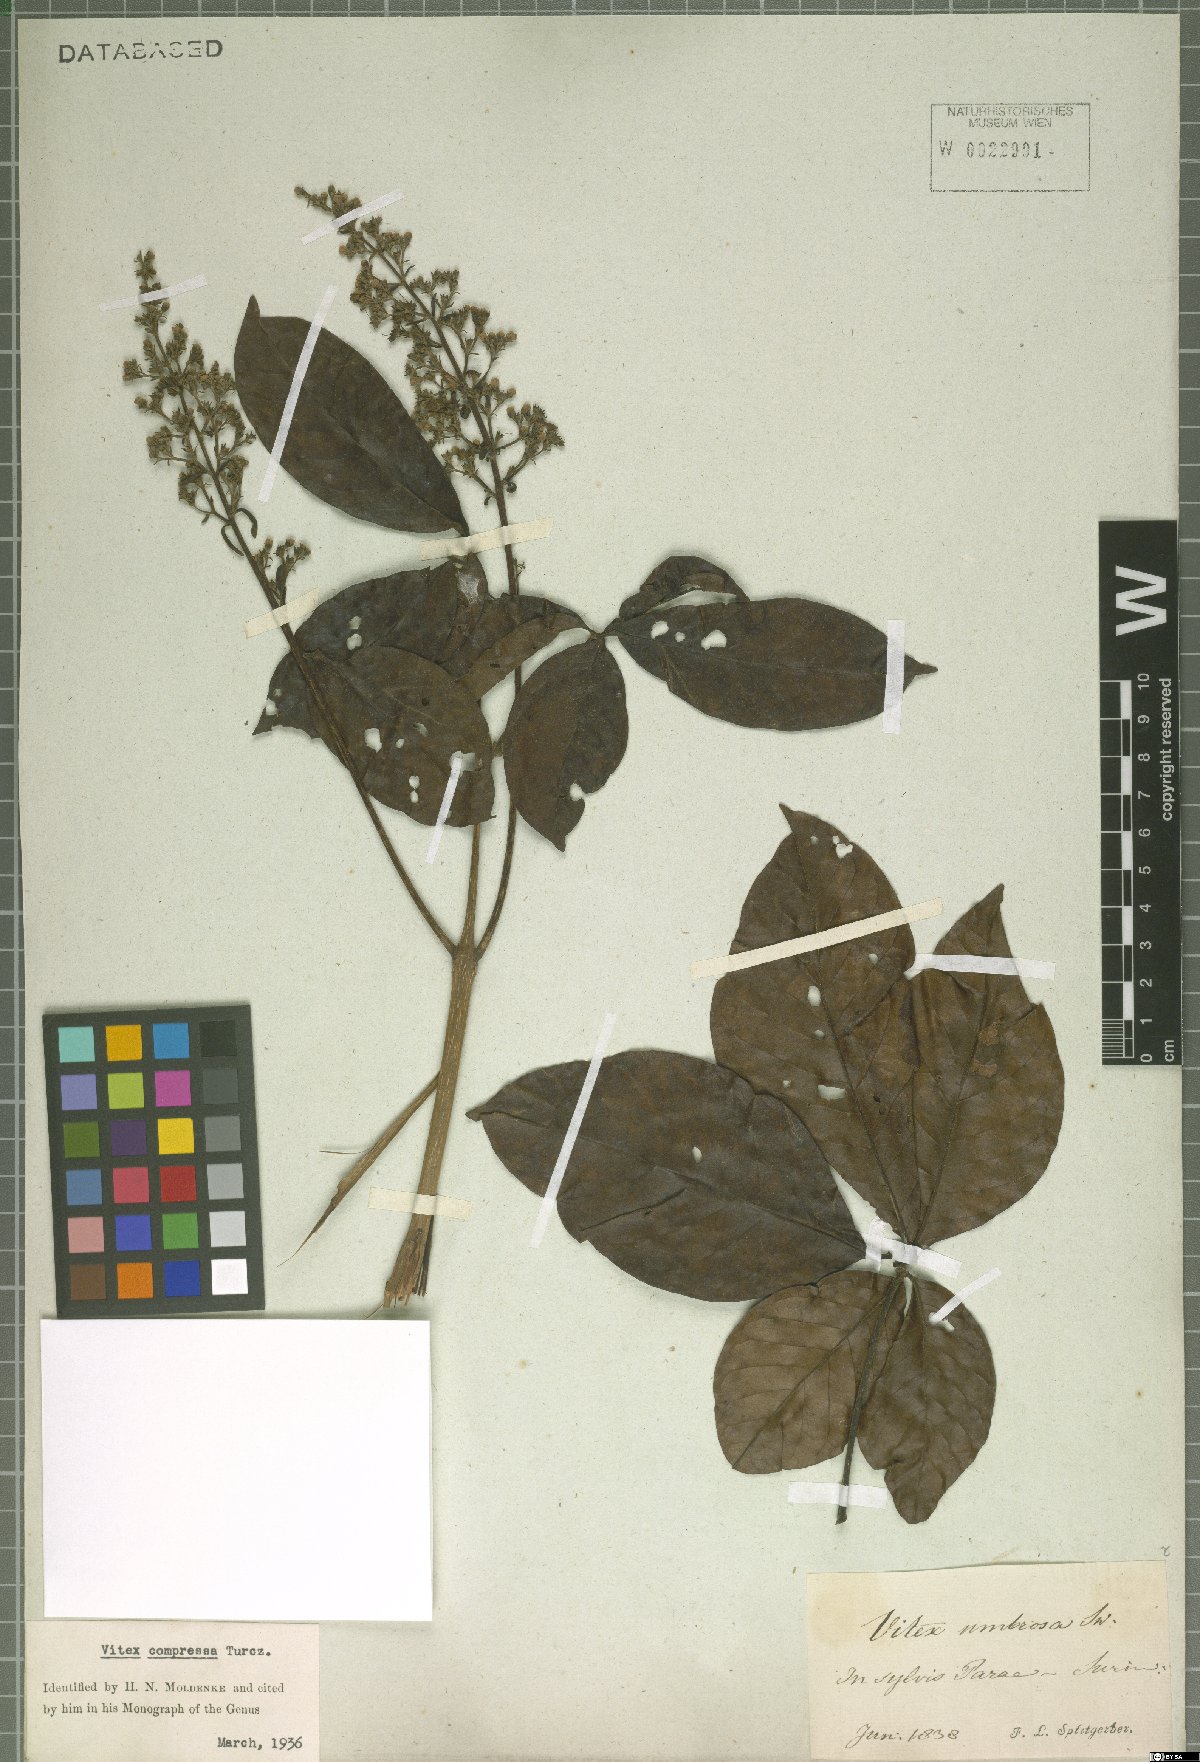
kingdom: Plantae
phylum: Tracheophyta
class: Magnoliopsida
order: Lamiales
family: Lamiaceae
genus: Vitex
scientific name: Vitex compressa
